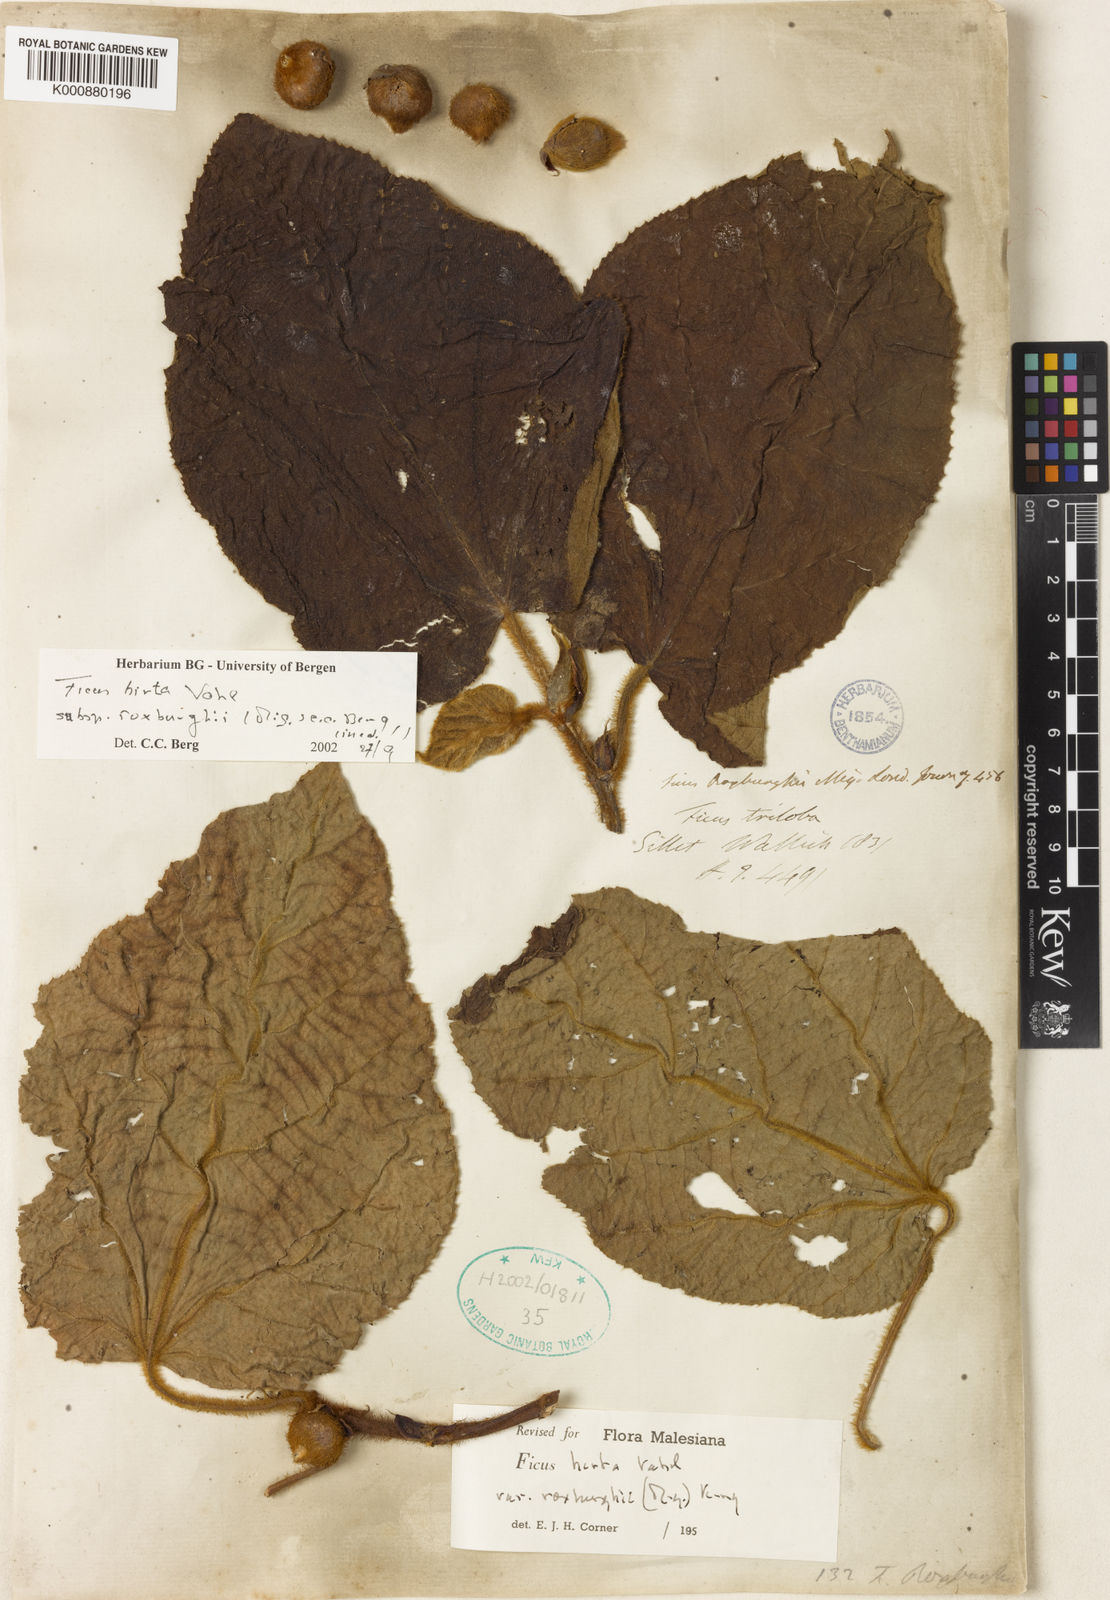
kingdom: Plantae
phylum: Tracheophyta
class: Magnoliopsida
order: Rosales
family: Moraceae
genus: Ficus
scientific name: Ficus triloba
